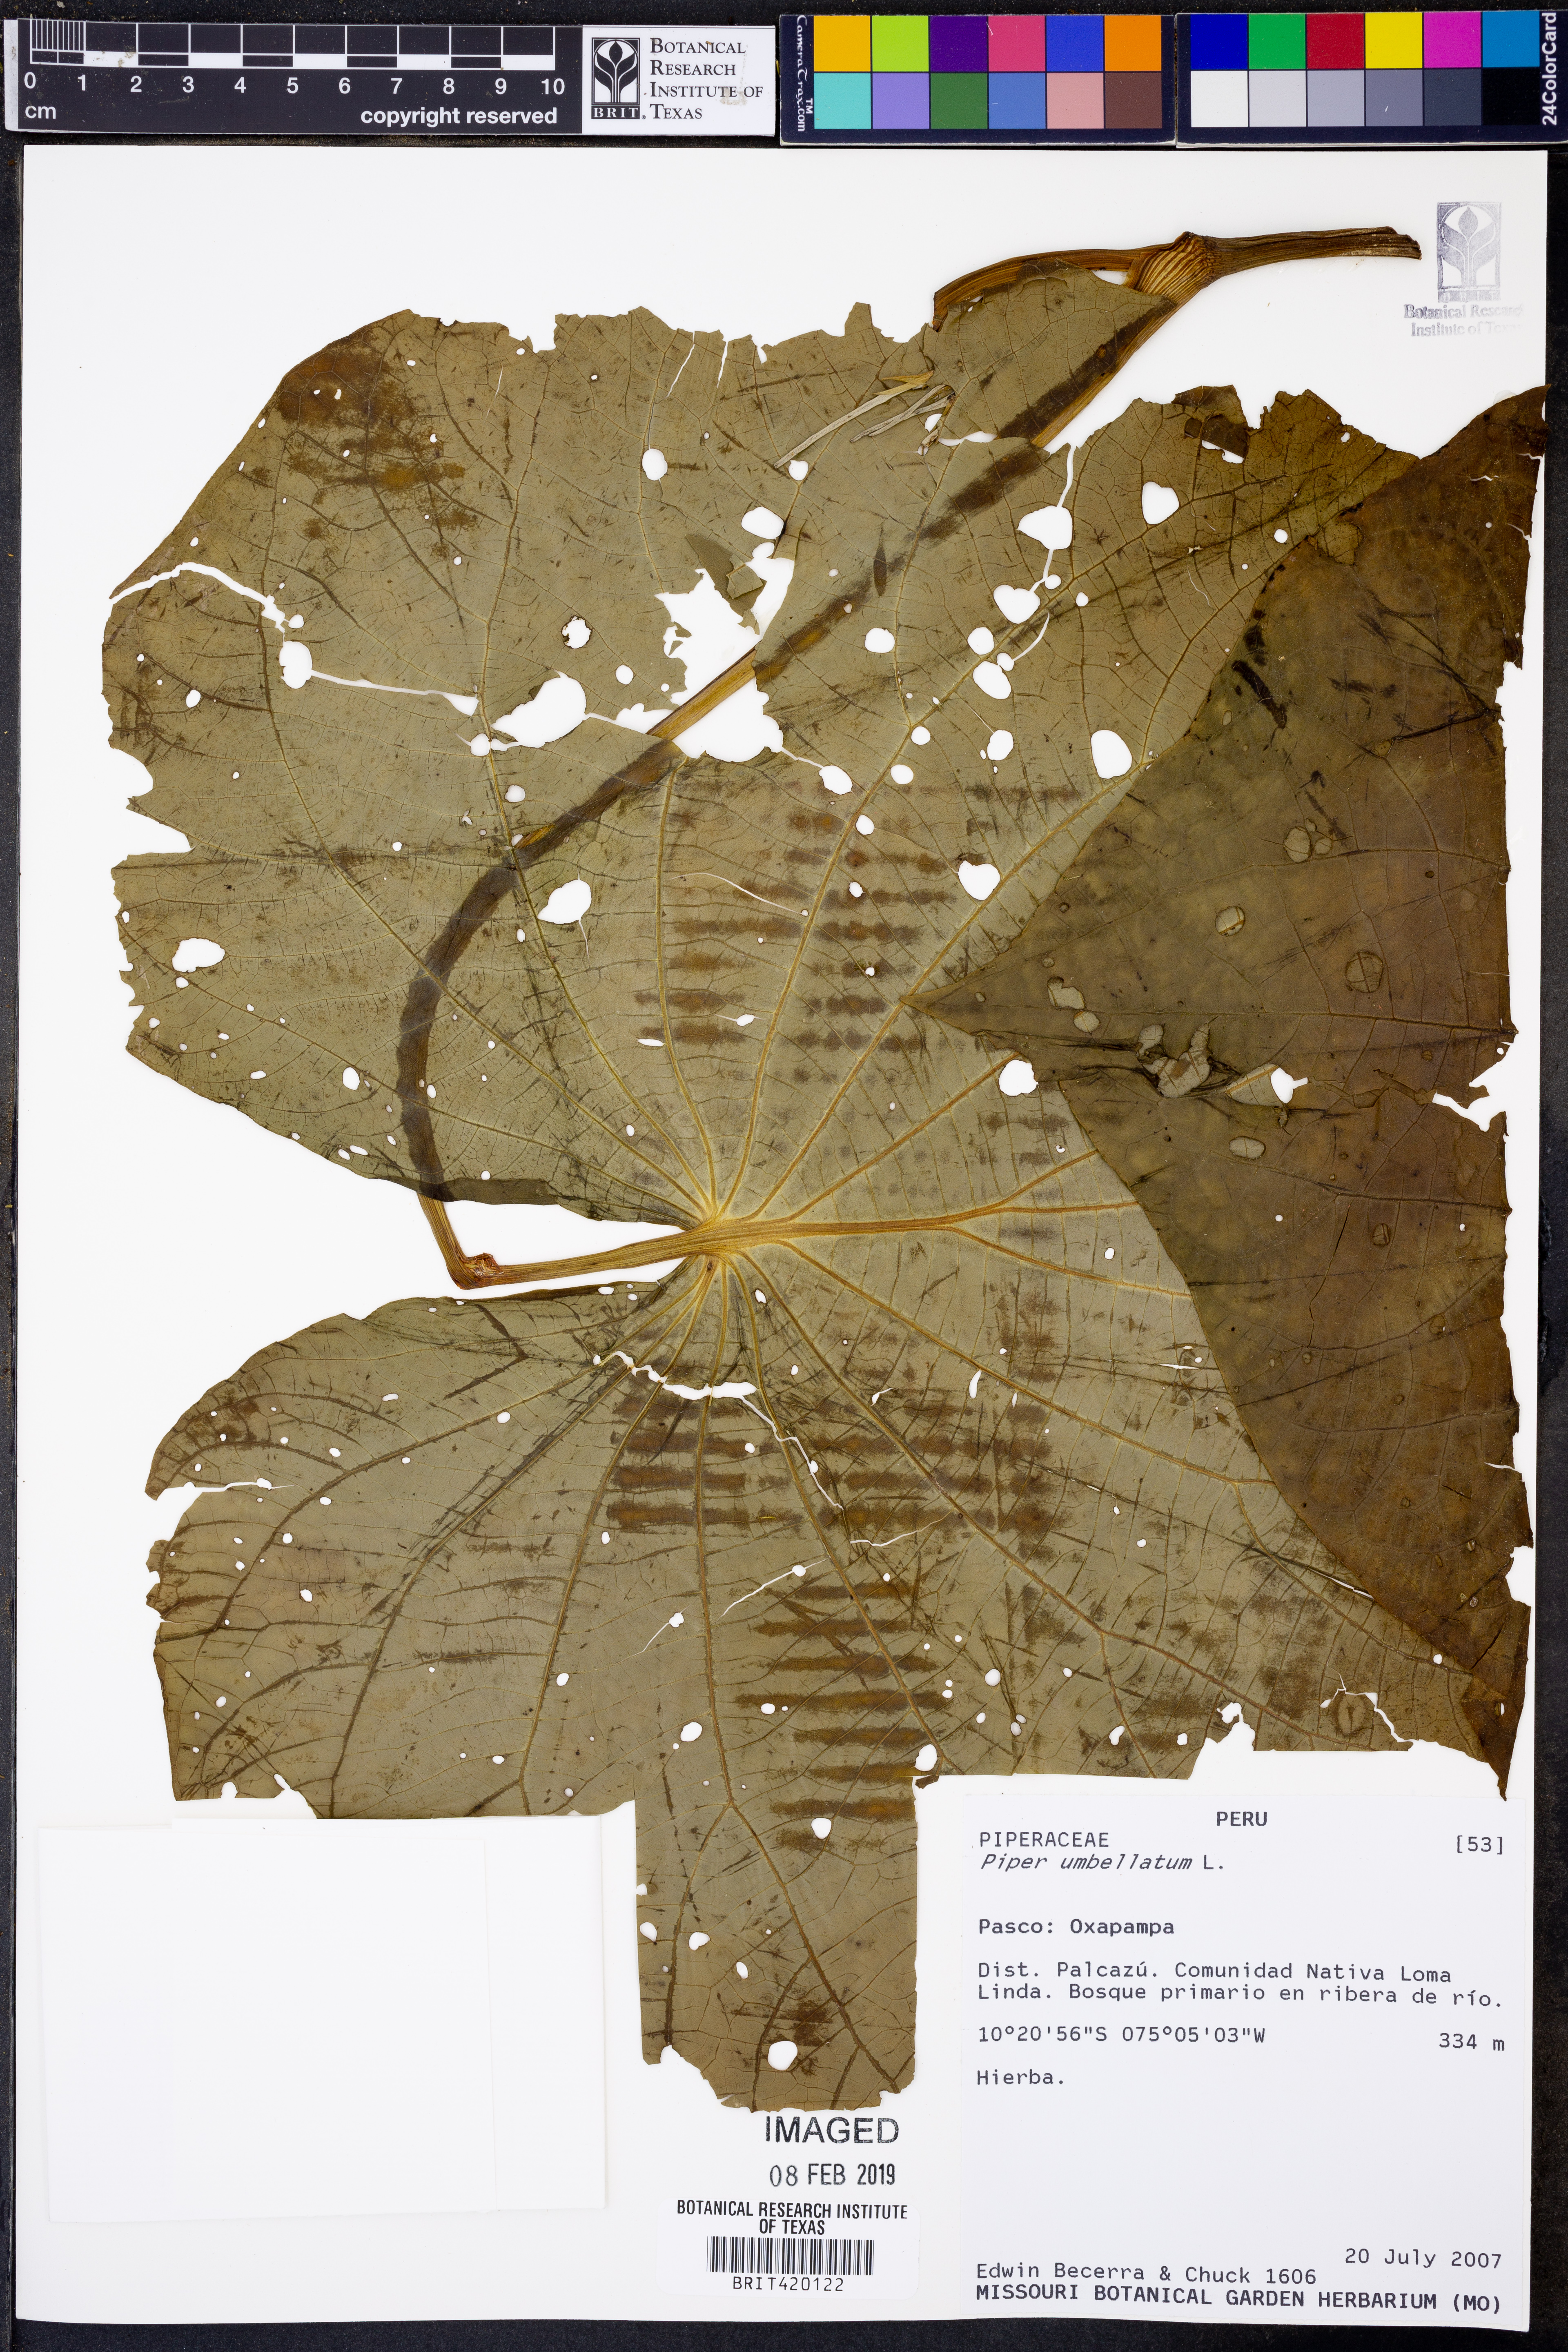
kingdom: Plantae
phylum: Tracheophyta
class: Magnoliopsida
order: Piperales
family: Piperaceae
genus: Piper
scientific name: Piper umbellatum
